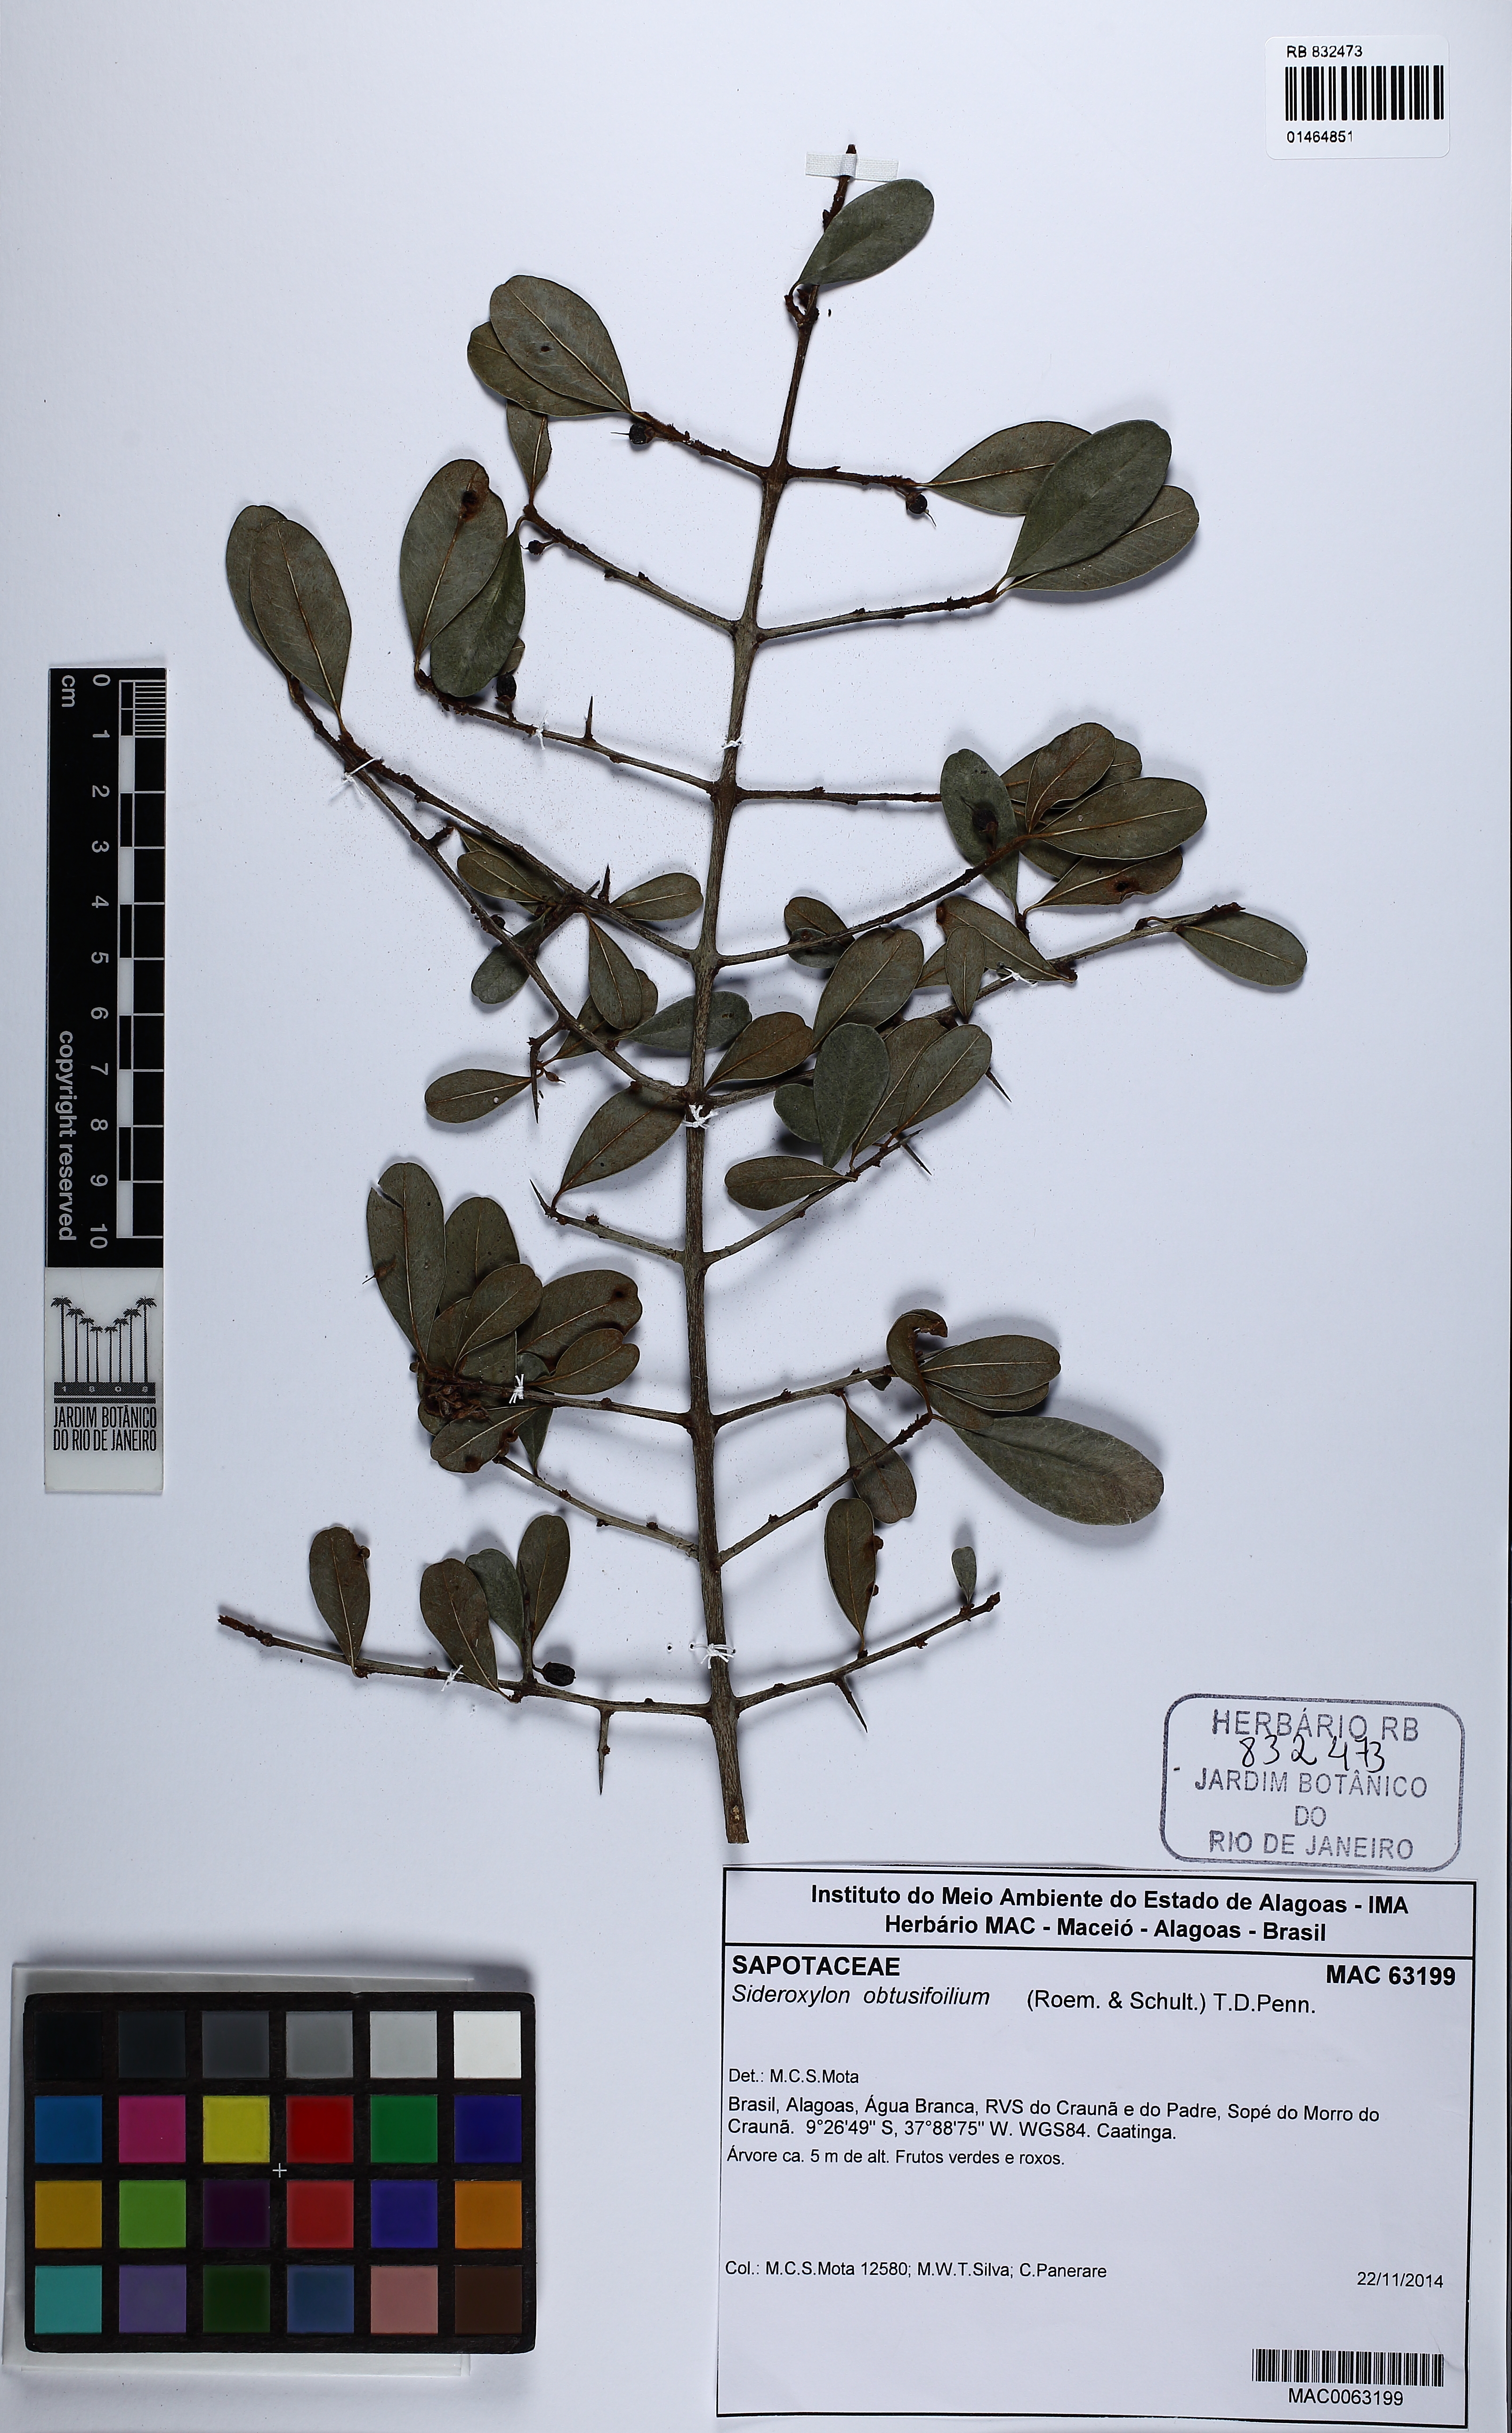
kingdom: Plantae
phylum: Tracheophyta
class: Magnoliopsida
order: Ericales
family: Sapotaceae
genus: Sideroxylon
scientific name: Sideroxylon obtusifolium
